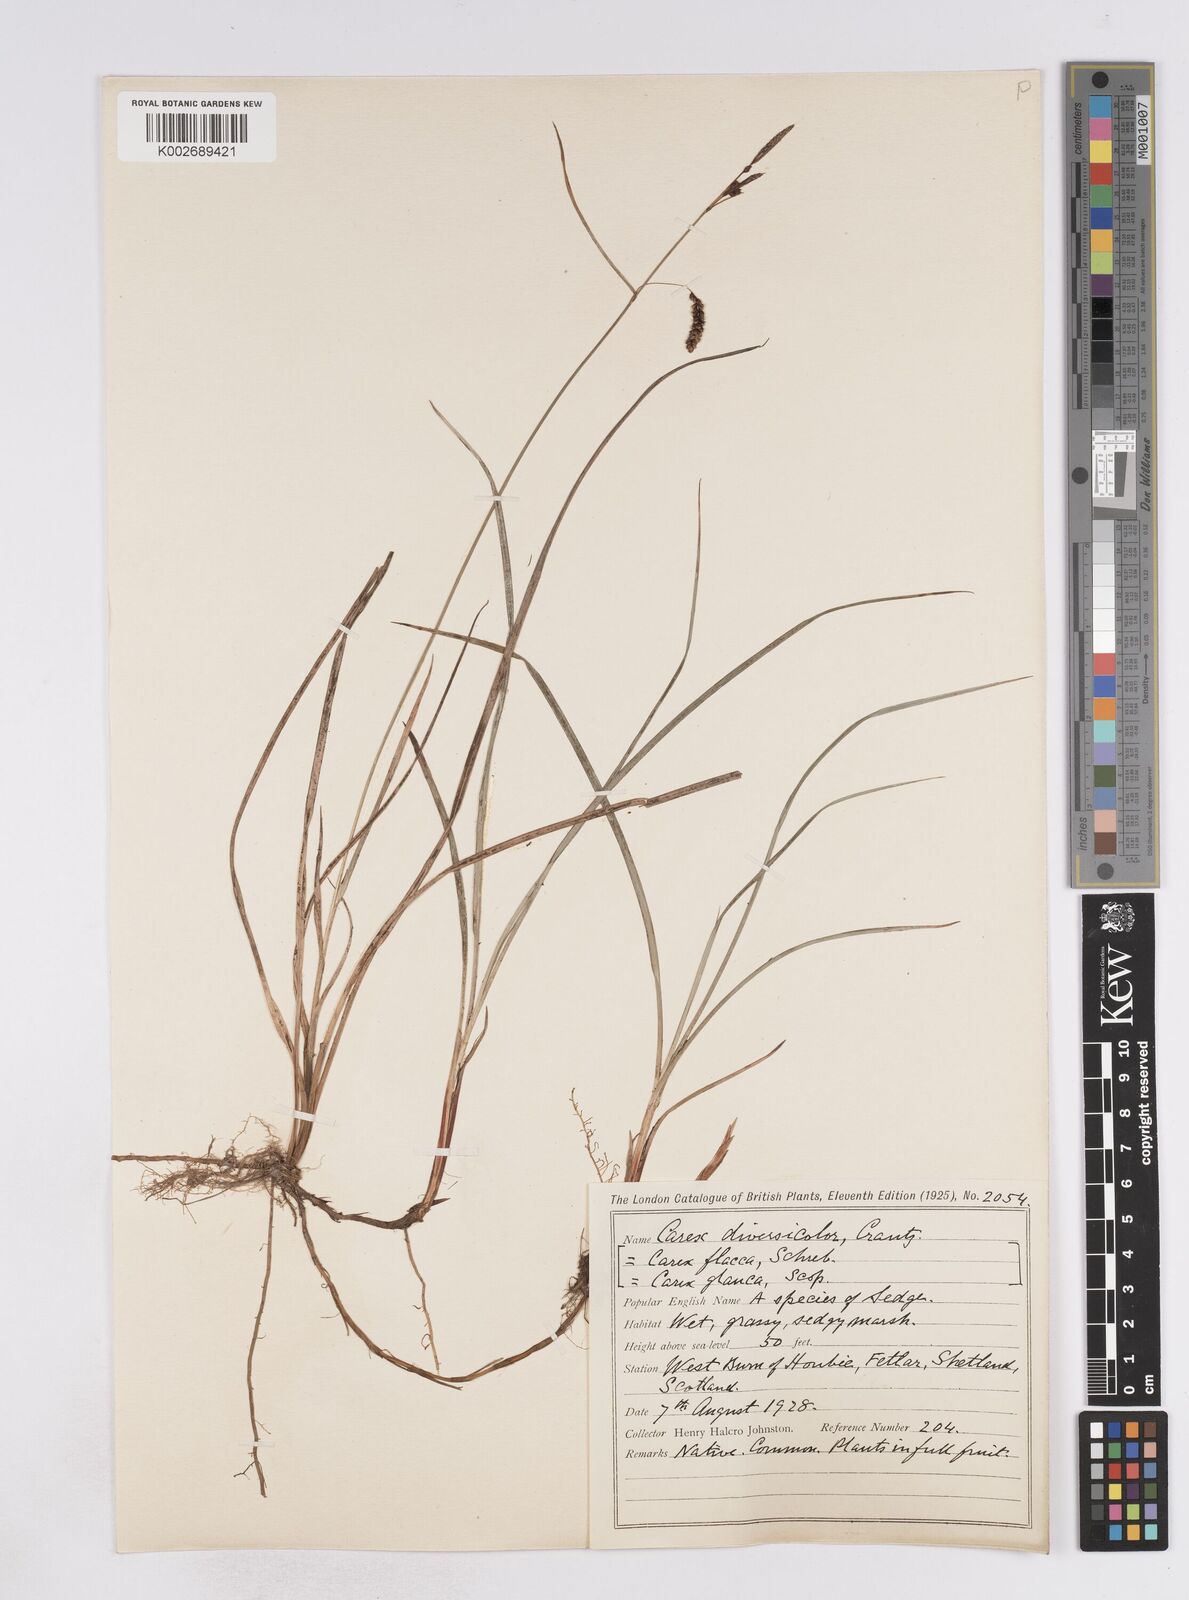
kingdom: Plantae
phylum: Tracheophyta
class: Liliopsida
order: Poales
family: Cyperaceae
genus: Carex
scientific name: Carex flacca
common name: Glaucous sedge
